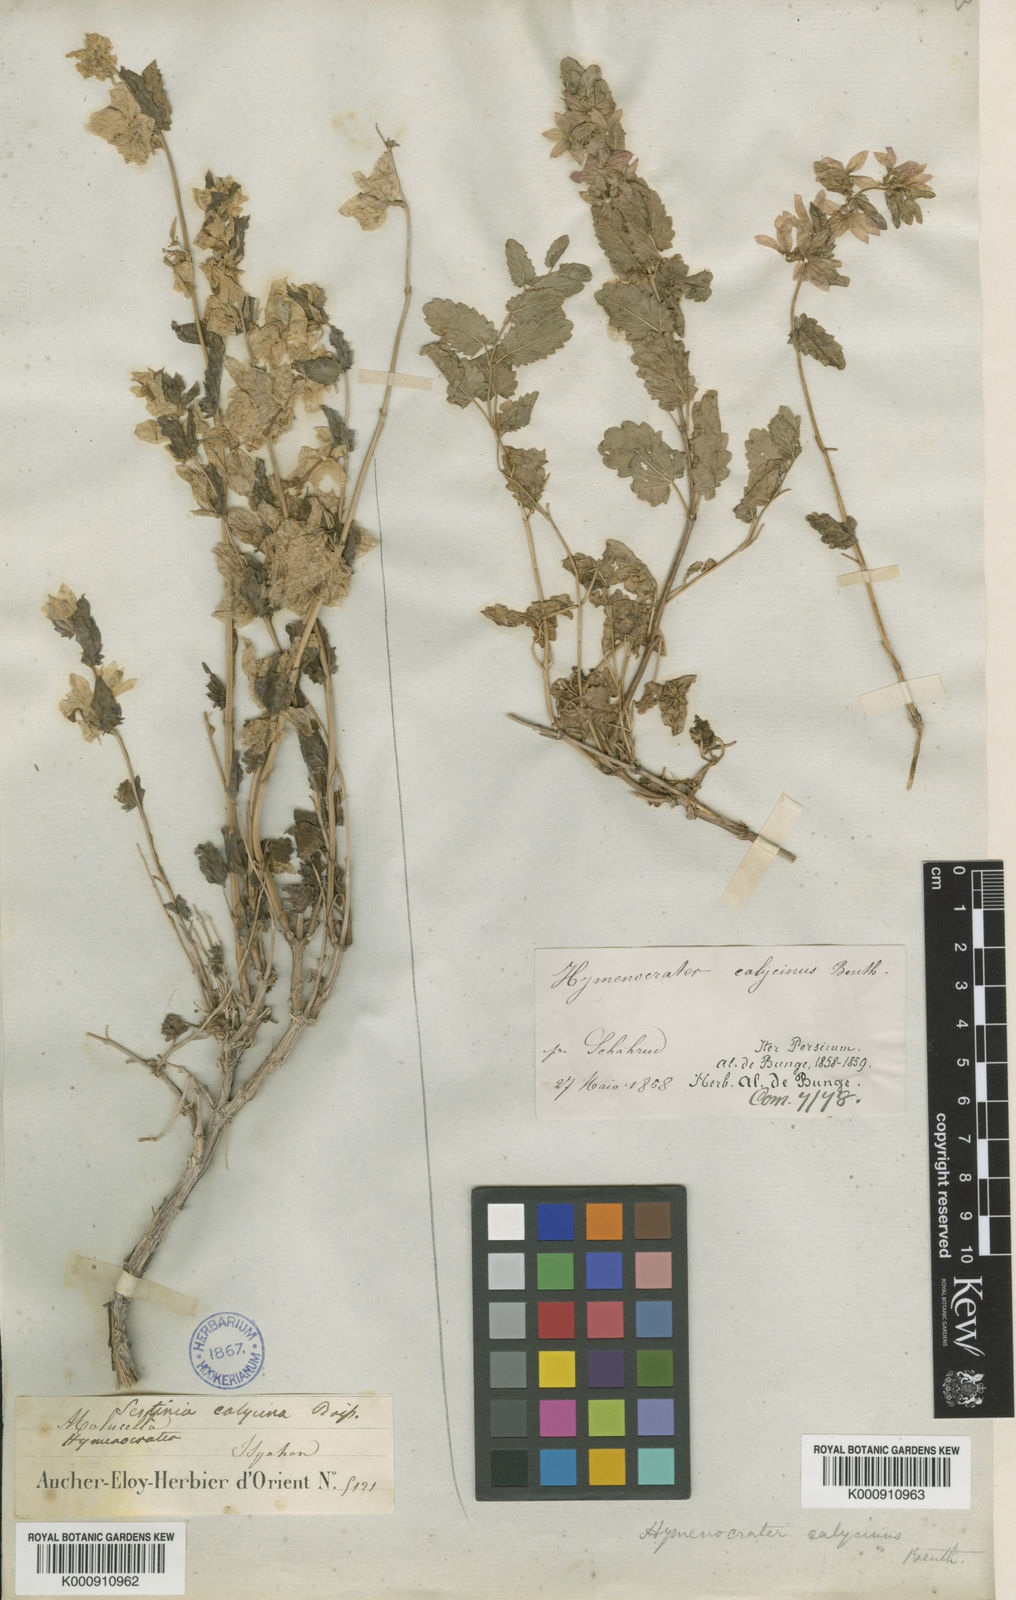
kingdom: Plantae
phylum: Tracheophyta
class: Magnoliopsida
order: Lamiales
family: Lamiaceae
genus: Hymenocrater
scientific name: Hymenocrater calycinus
